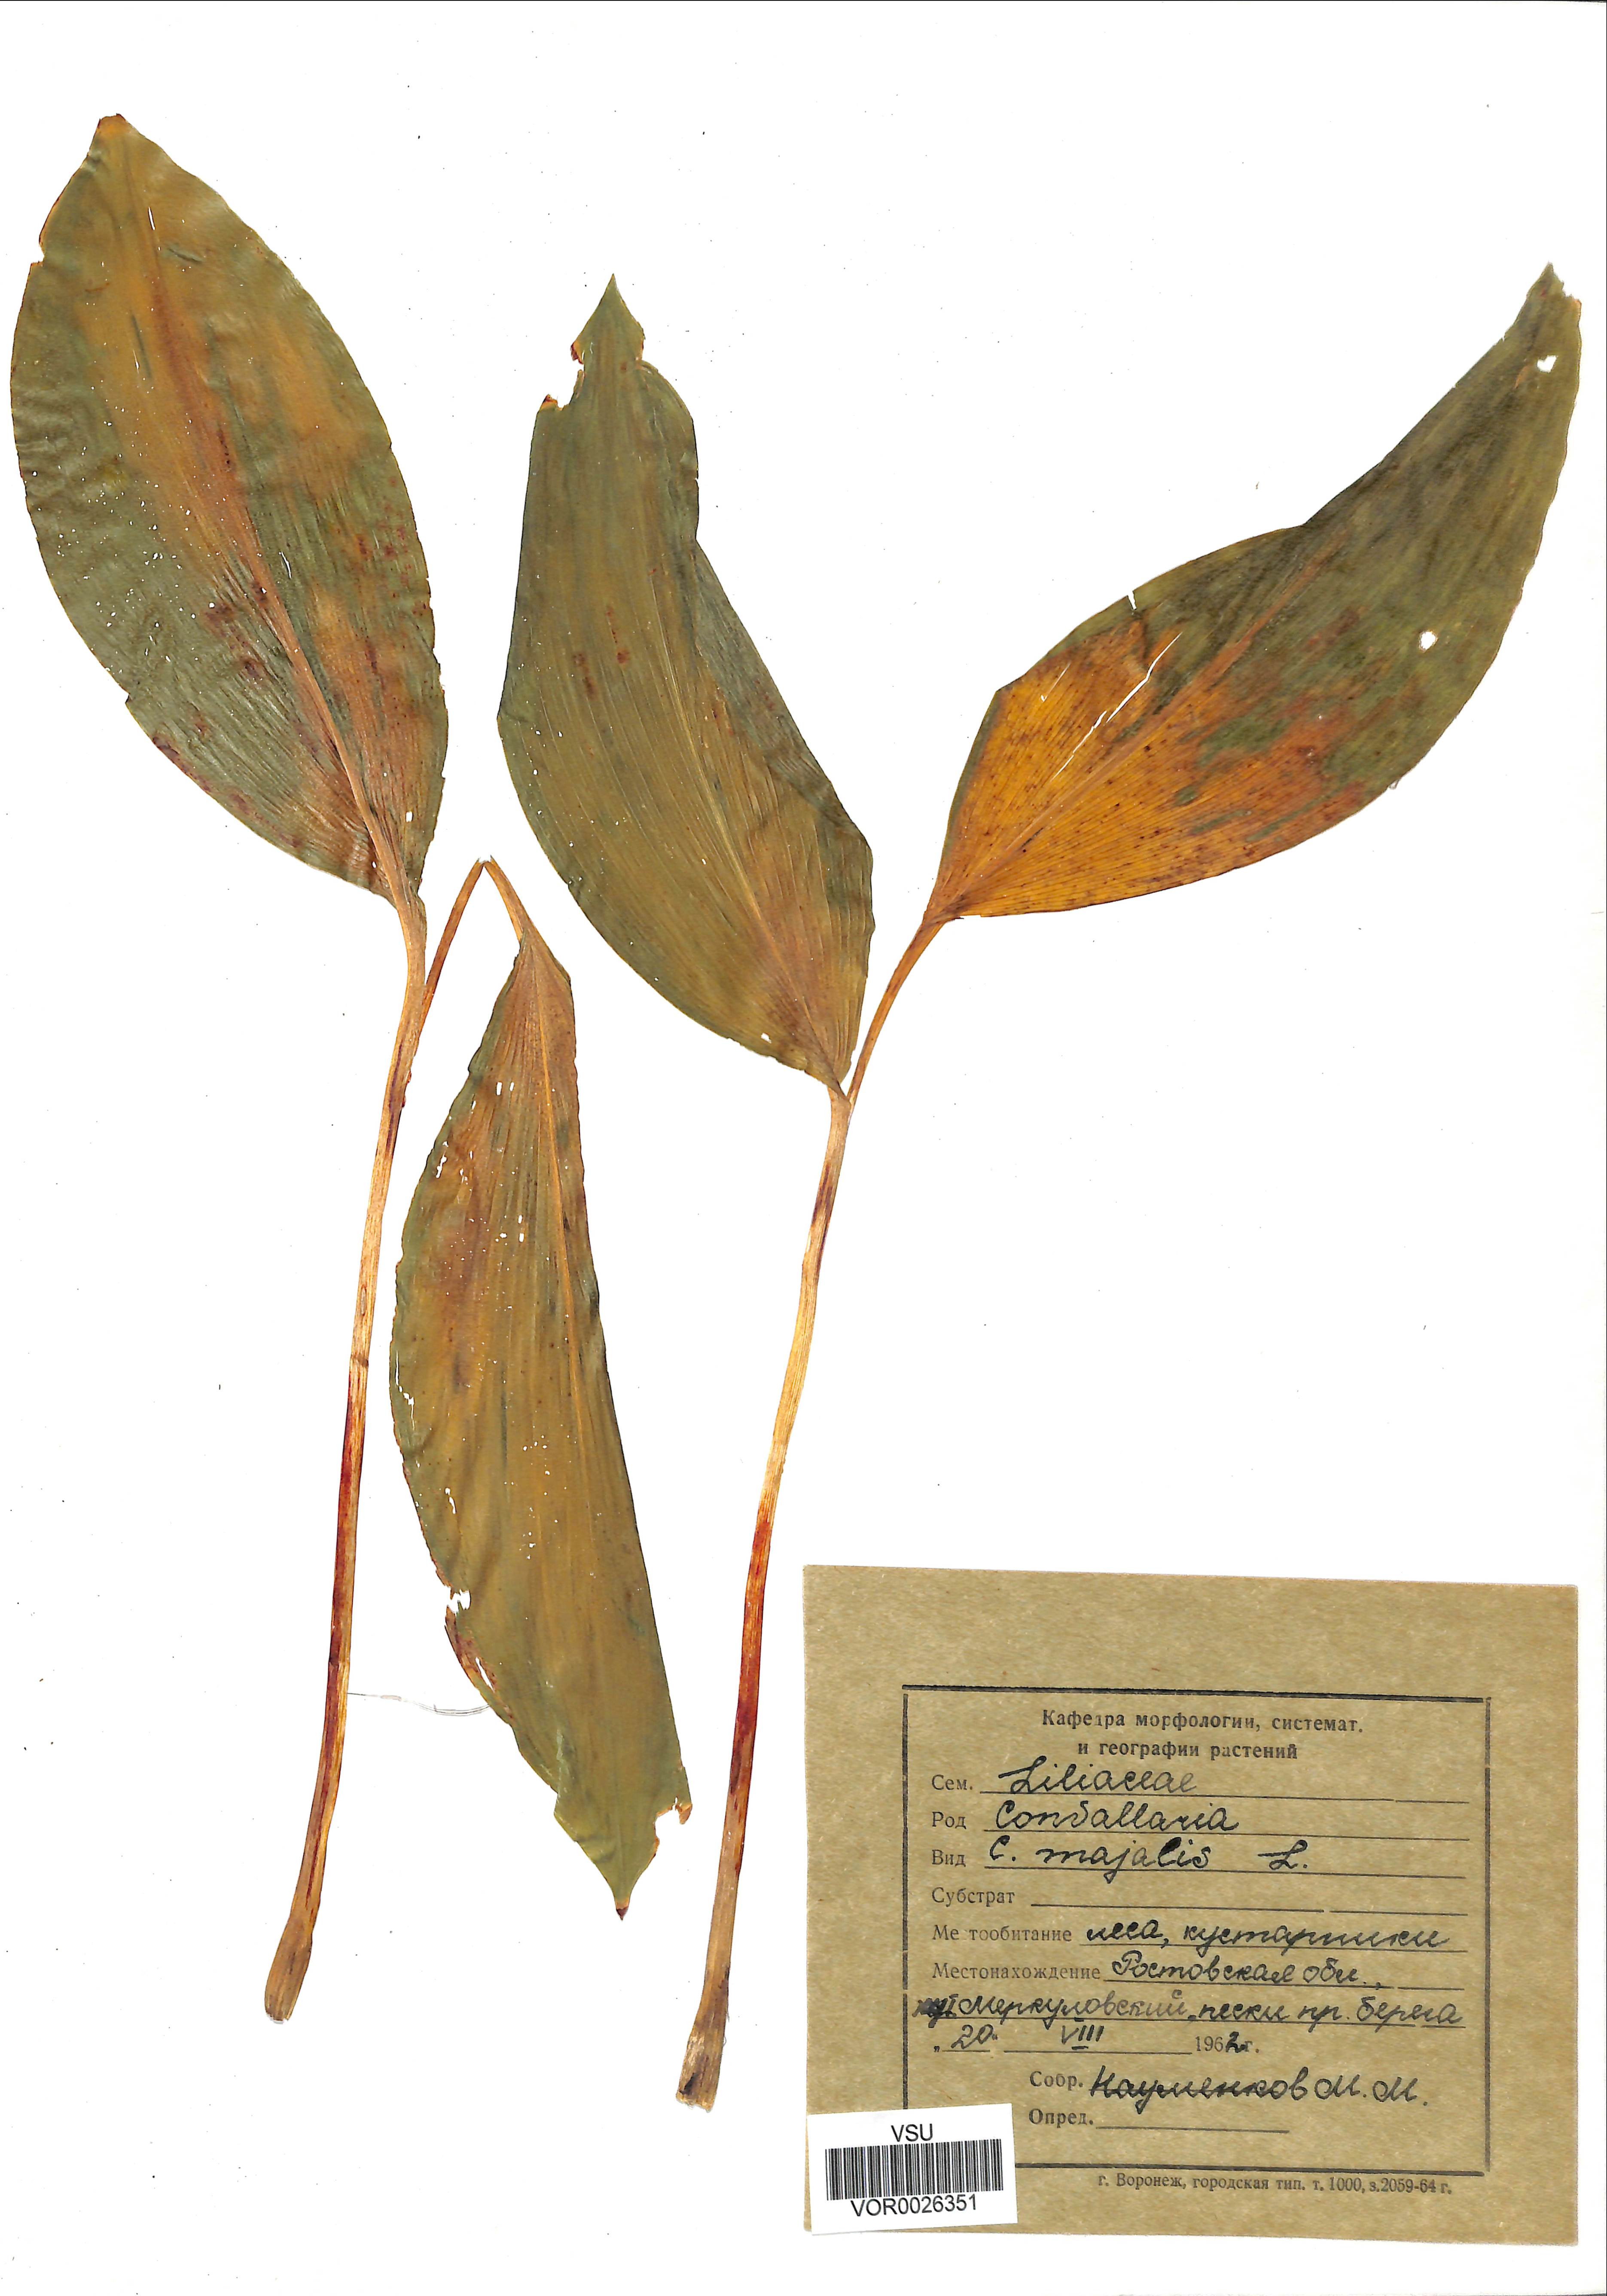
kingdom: Plantae
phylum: Tracheophyta
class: Liliopsida
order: Asparagales
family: Asparagaceae
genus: Convallaria
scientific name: Convallaria majalis
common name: Lily-of-the-valley
